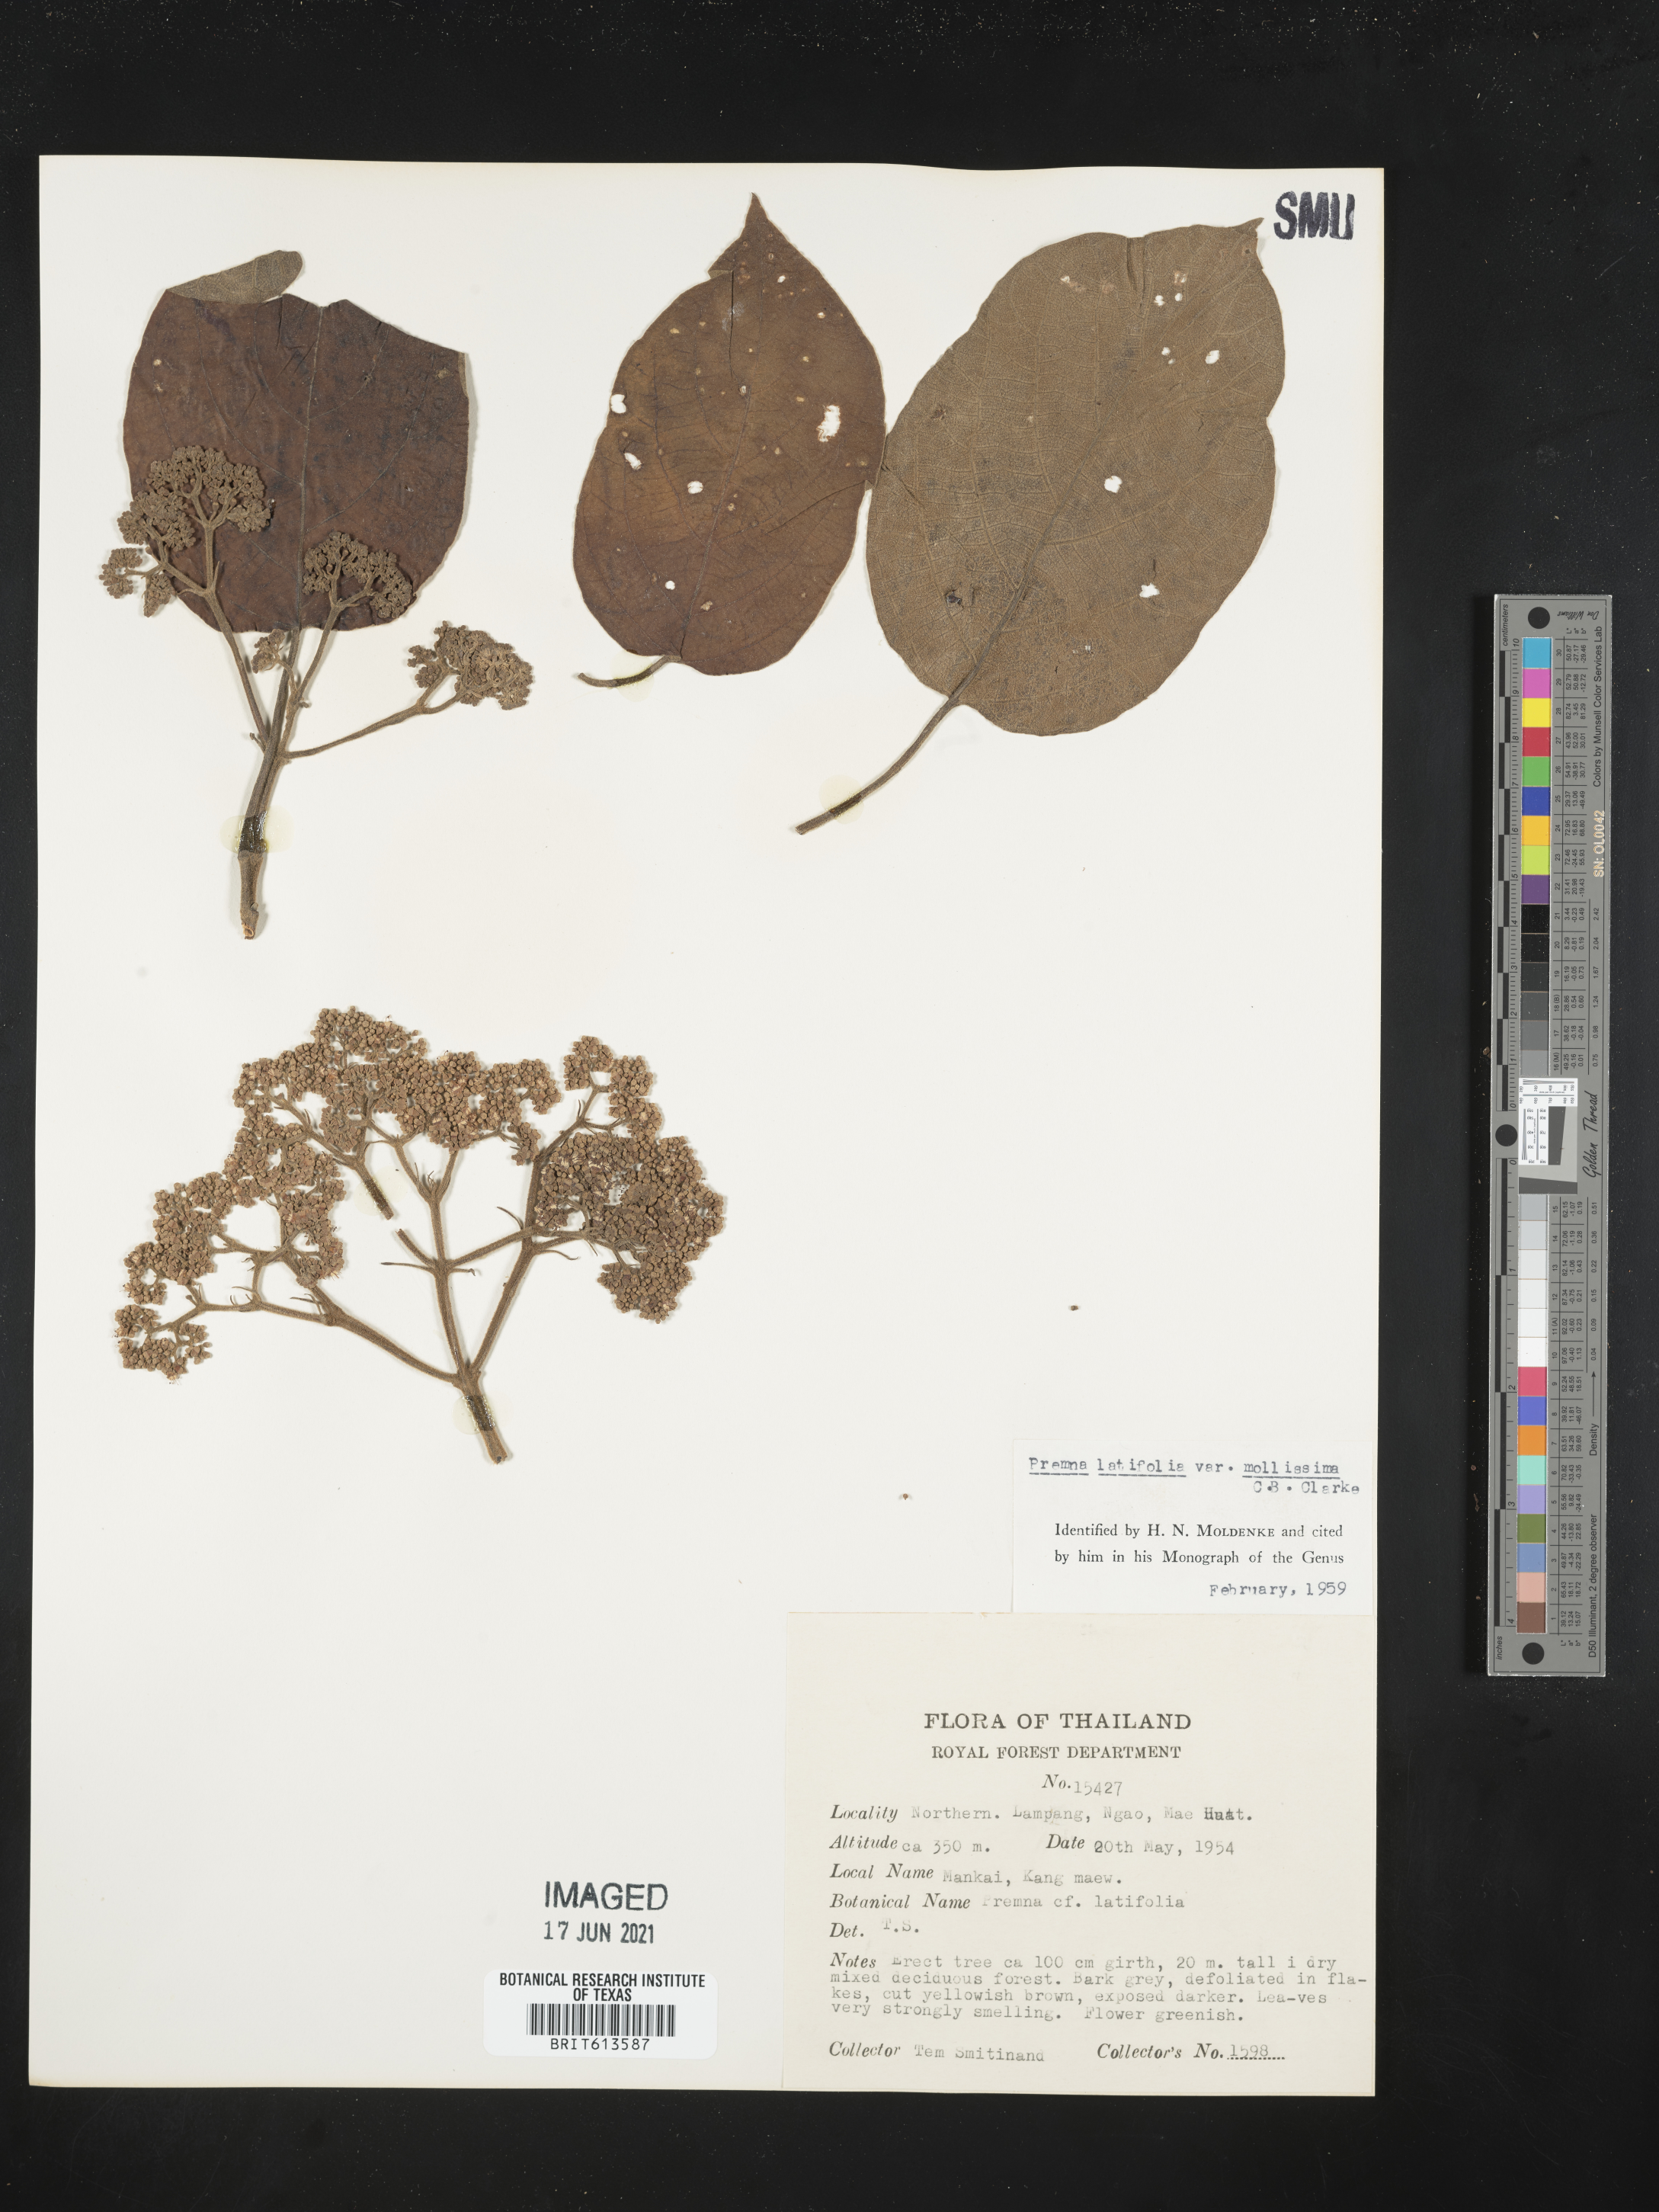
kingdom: Plantae
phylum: Tracheophyta
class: Magnoliopsida
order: Lamiales
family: Lamiaceae
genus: Premna
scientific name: Premna mollissima
